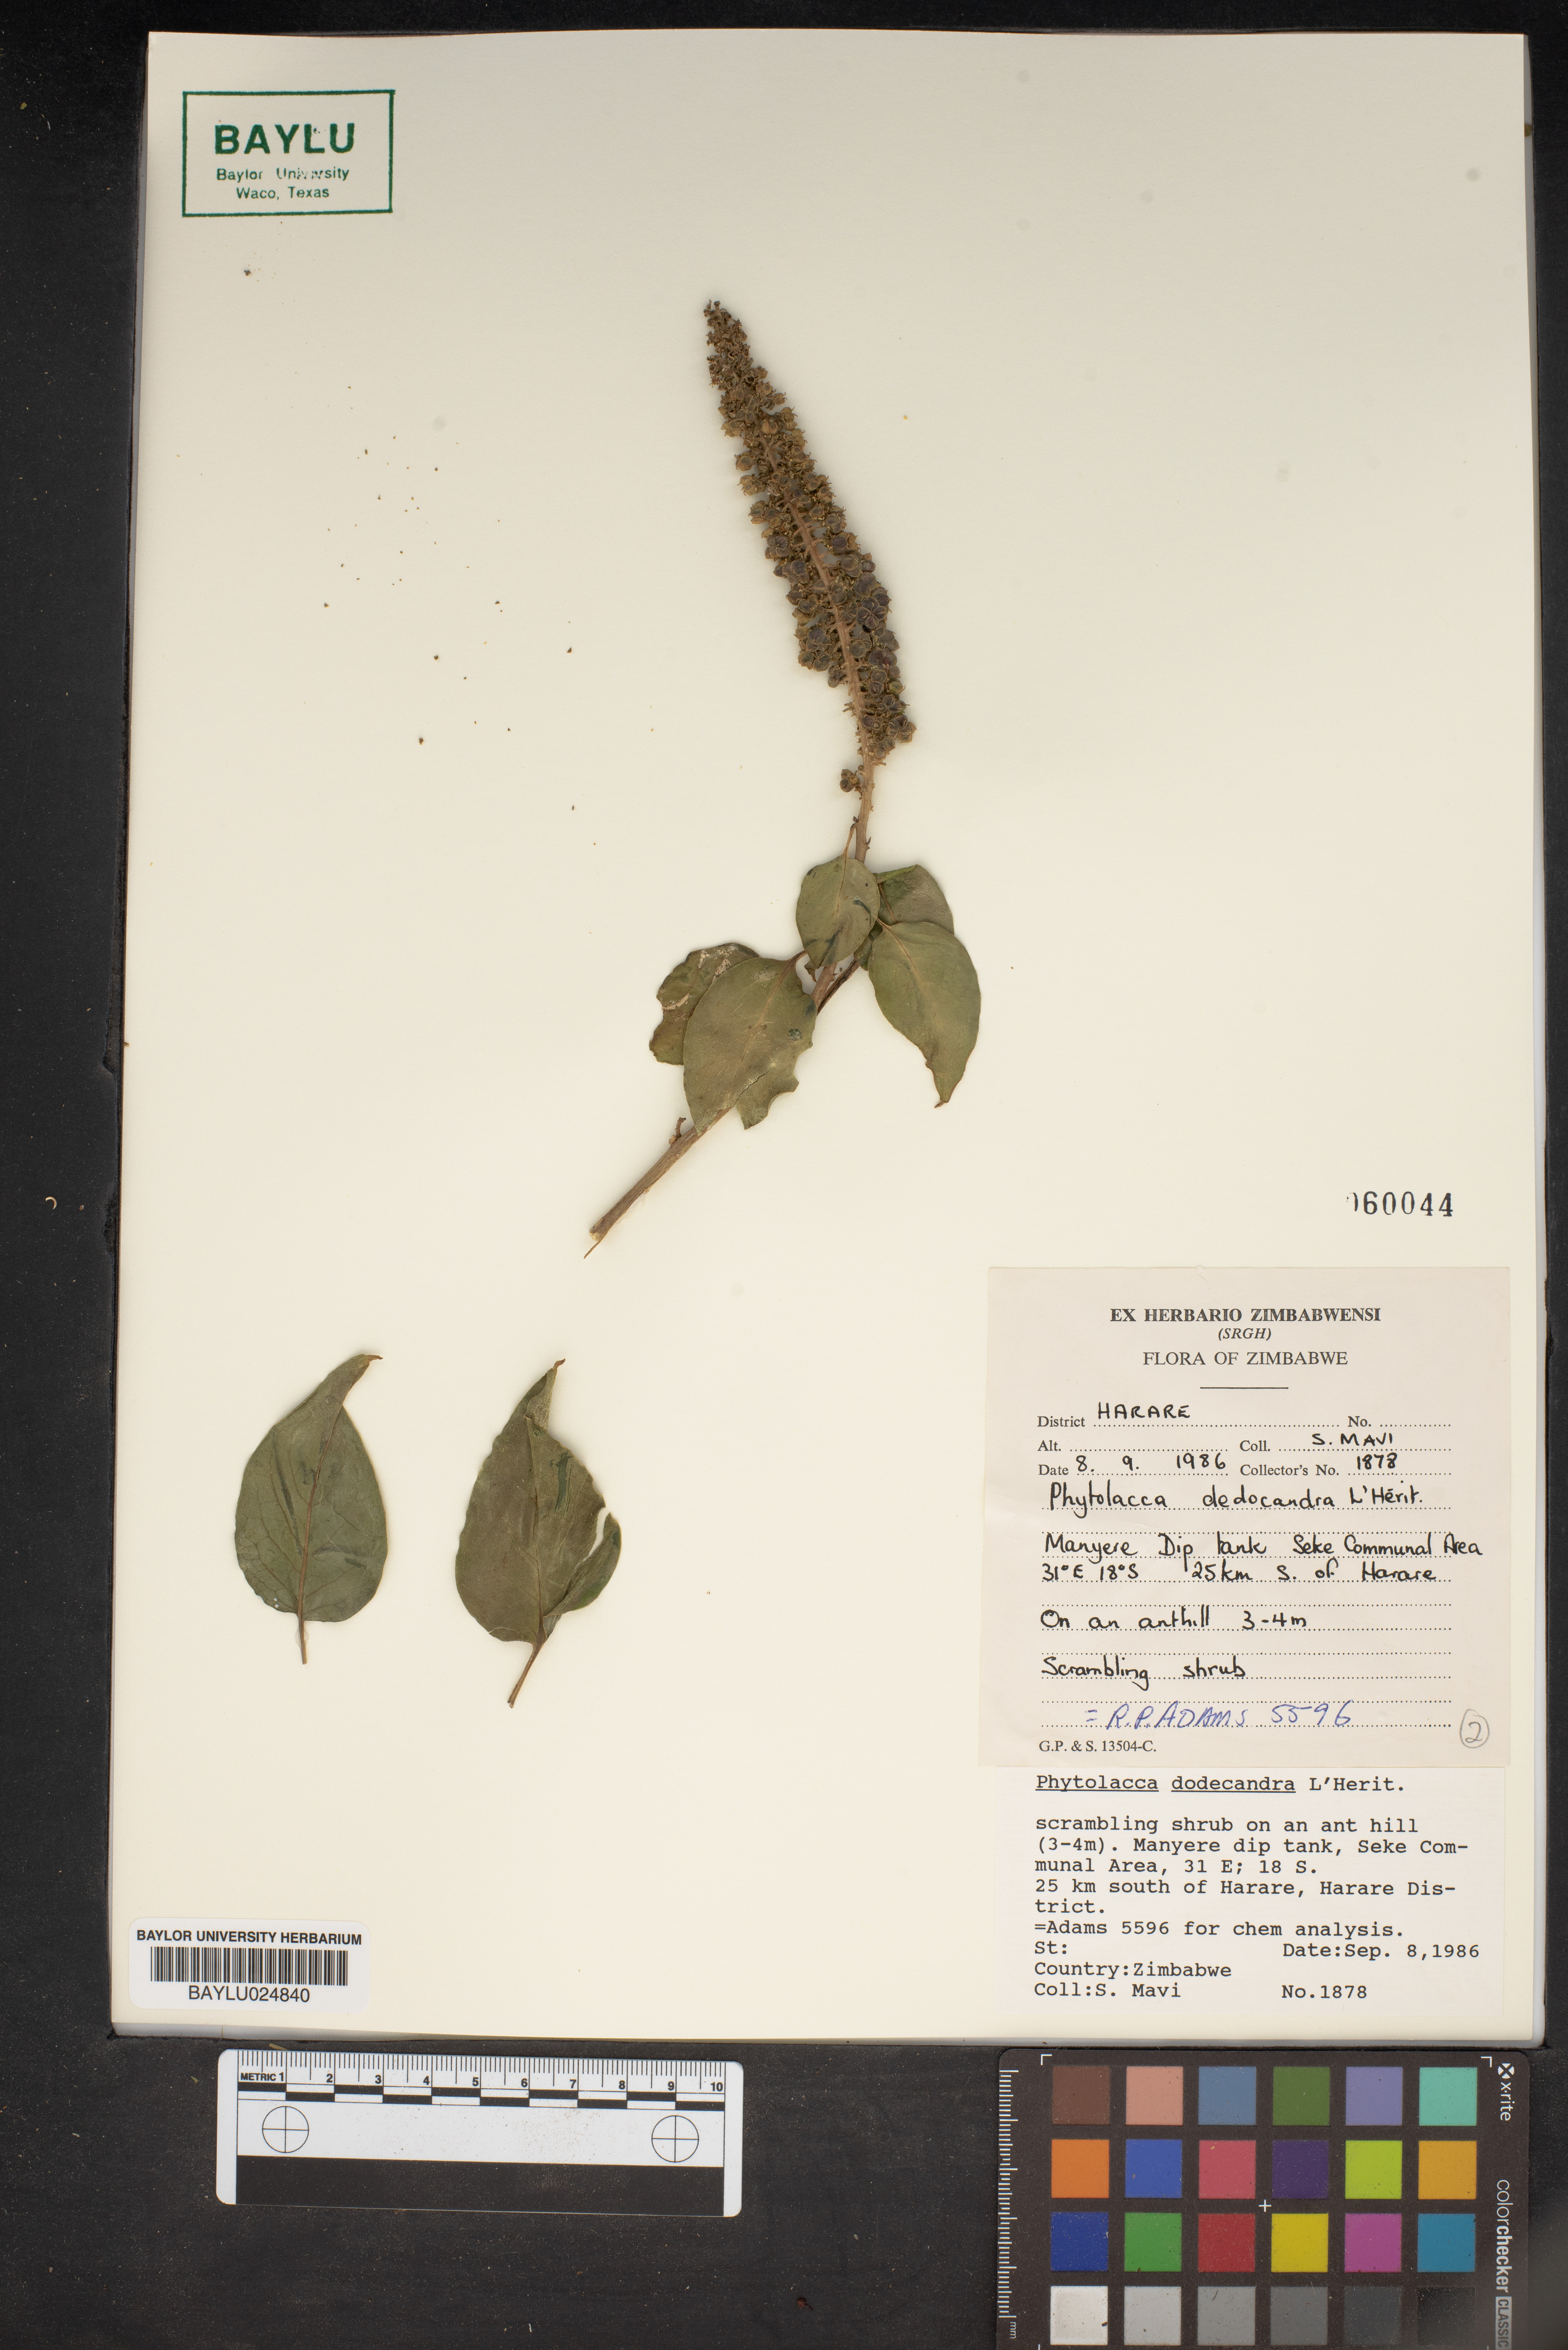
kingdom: Plantae
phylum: Tracheophyta
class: Magnoliopsida
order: Caryophyllales
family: Phytolaccaceae
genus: Phytolacca
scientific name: Phytolacca dodecandra
